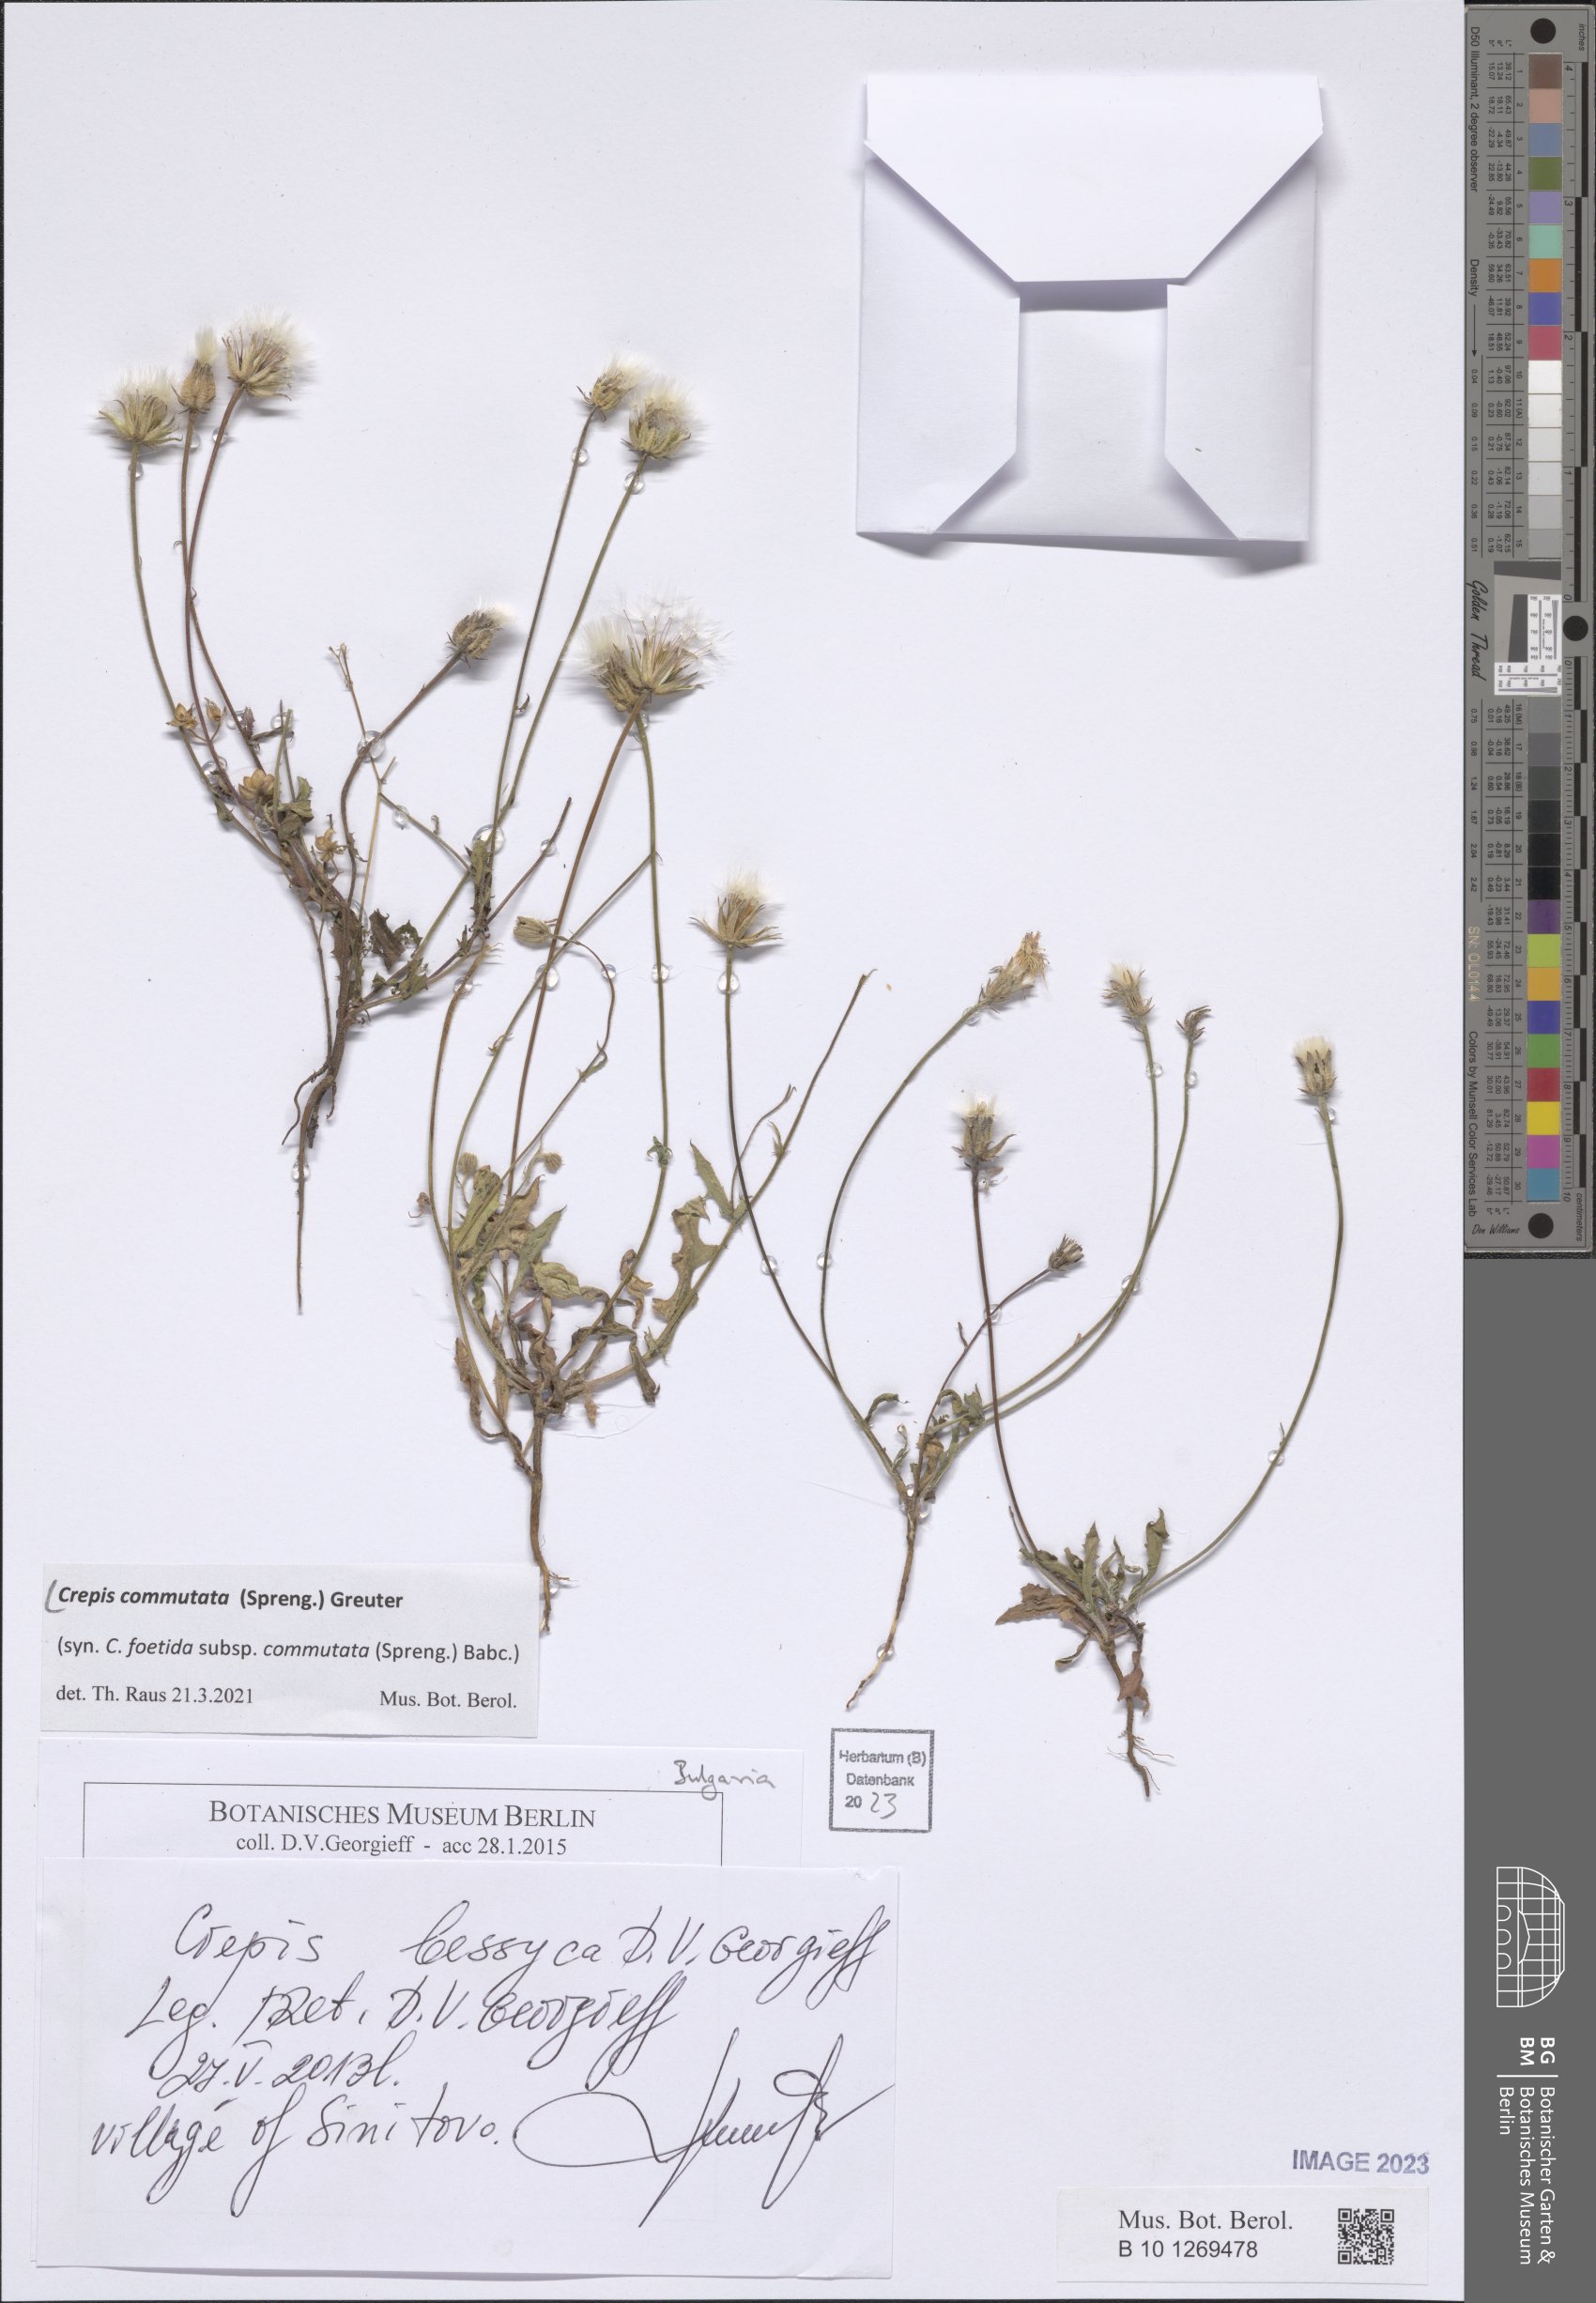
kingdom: Plantae
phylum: Tracheophyta
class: Magnoliopsida
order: Asterales
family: Asteraceae
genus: Crepis
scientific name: Crepis commutata
